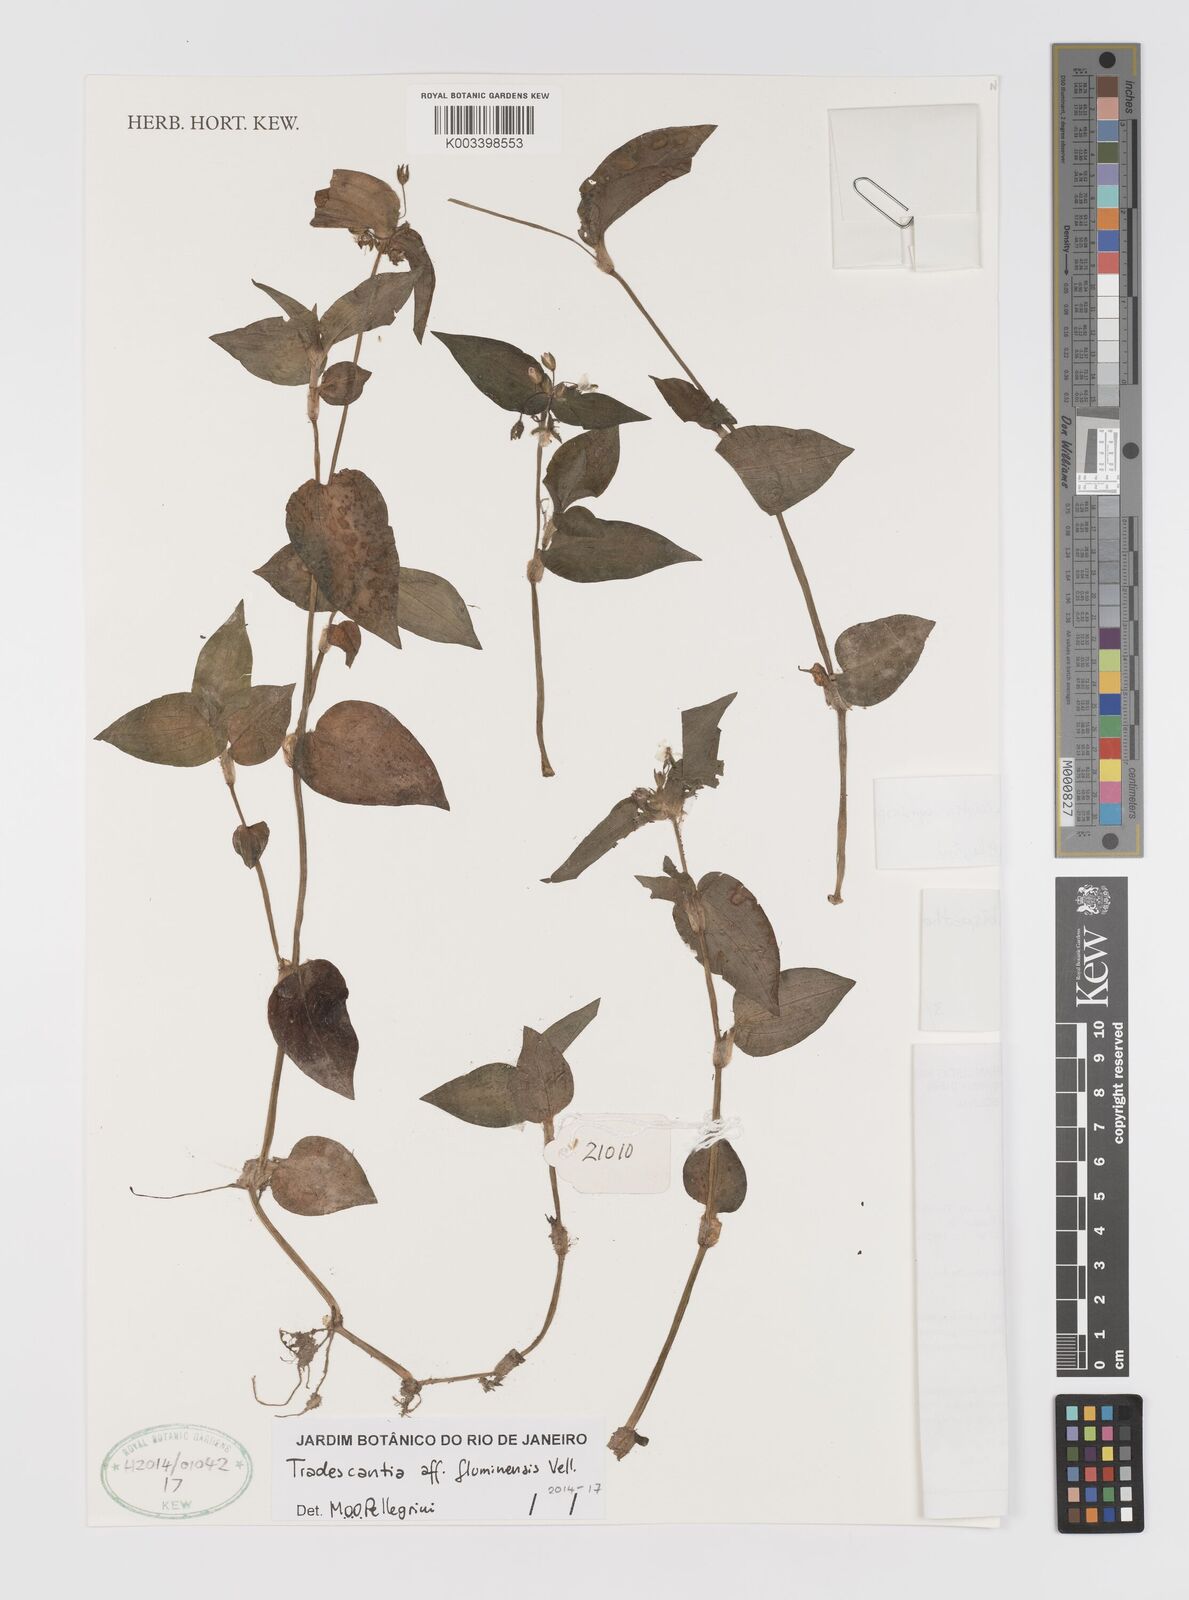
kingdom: Plantae
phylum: Tracheophyta
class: Liliopsida
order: Commelinales
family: Commelinaceae
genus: Tradescantia
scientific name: Tradescantia cymbispatha
